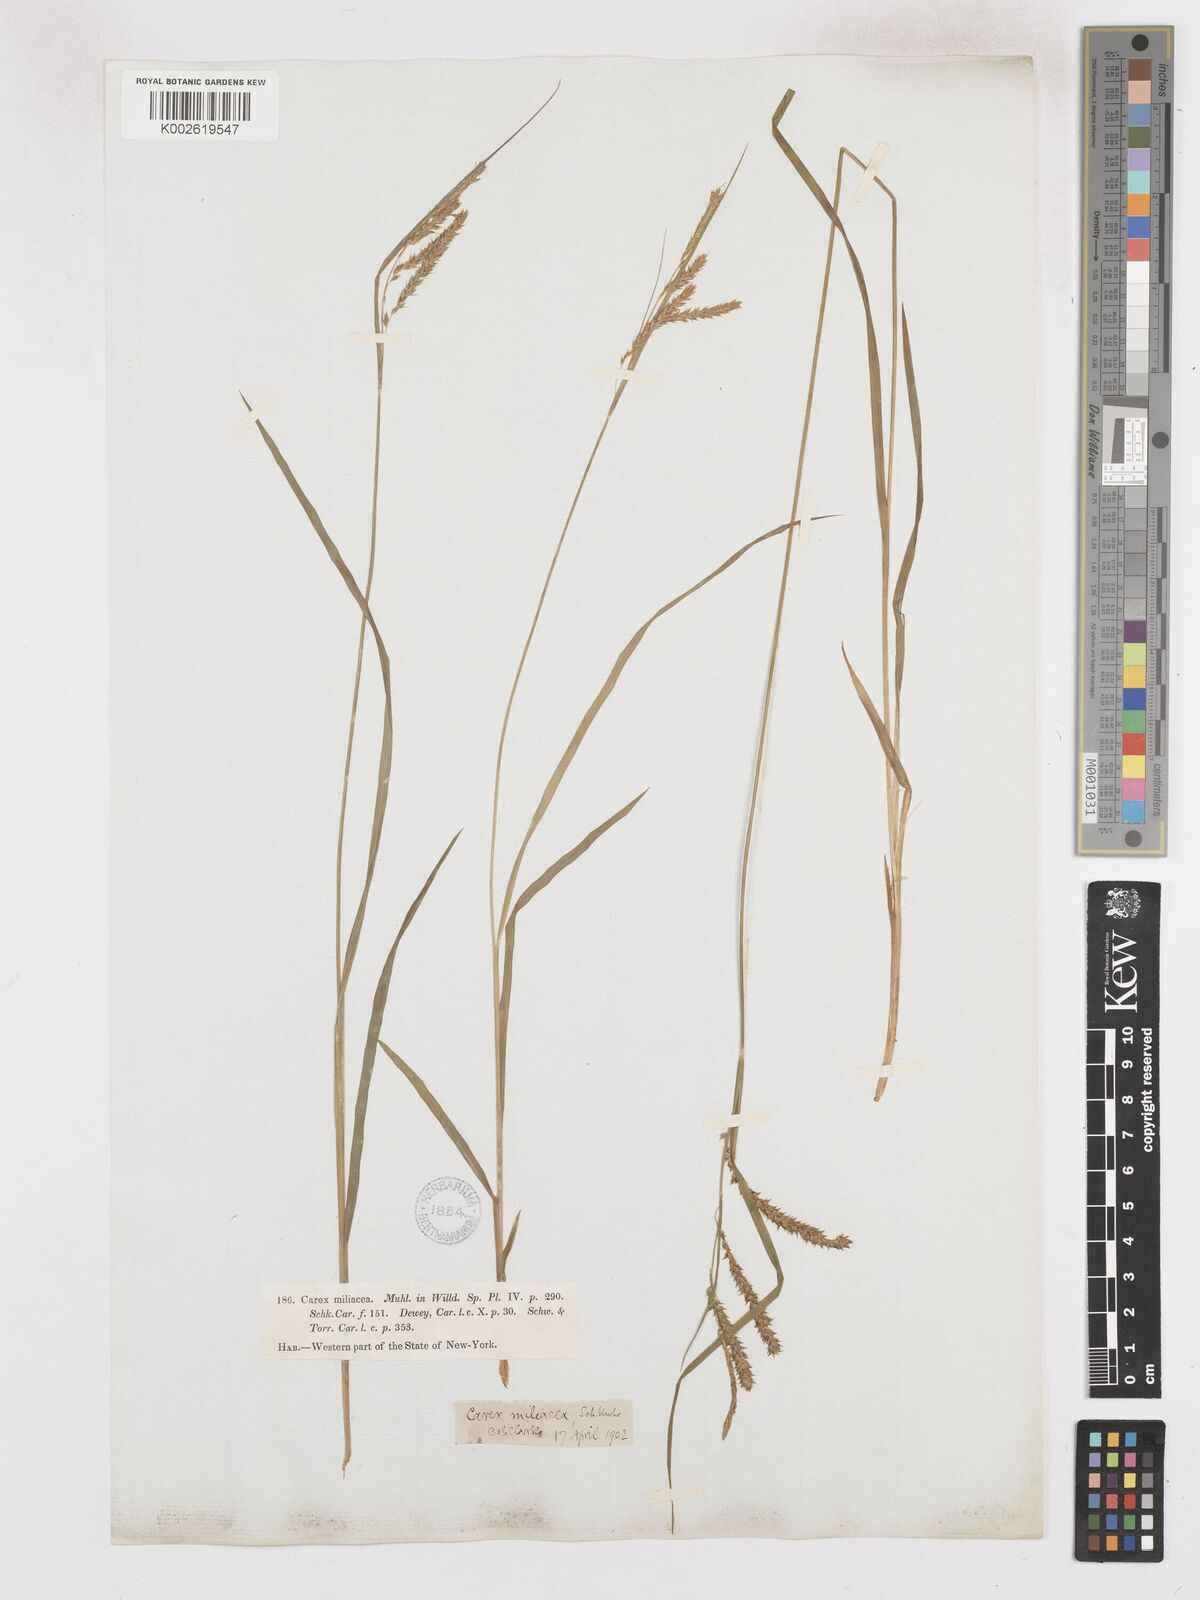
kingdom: Plantae
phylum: Tracheophyta
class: Liliopsida
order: Poales
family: Cyperaceae
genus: Carex
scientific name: Carex prasina
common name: Drooping sedge
